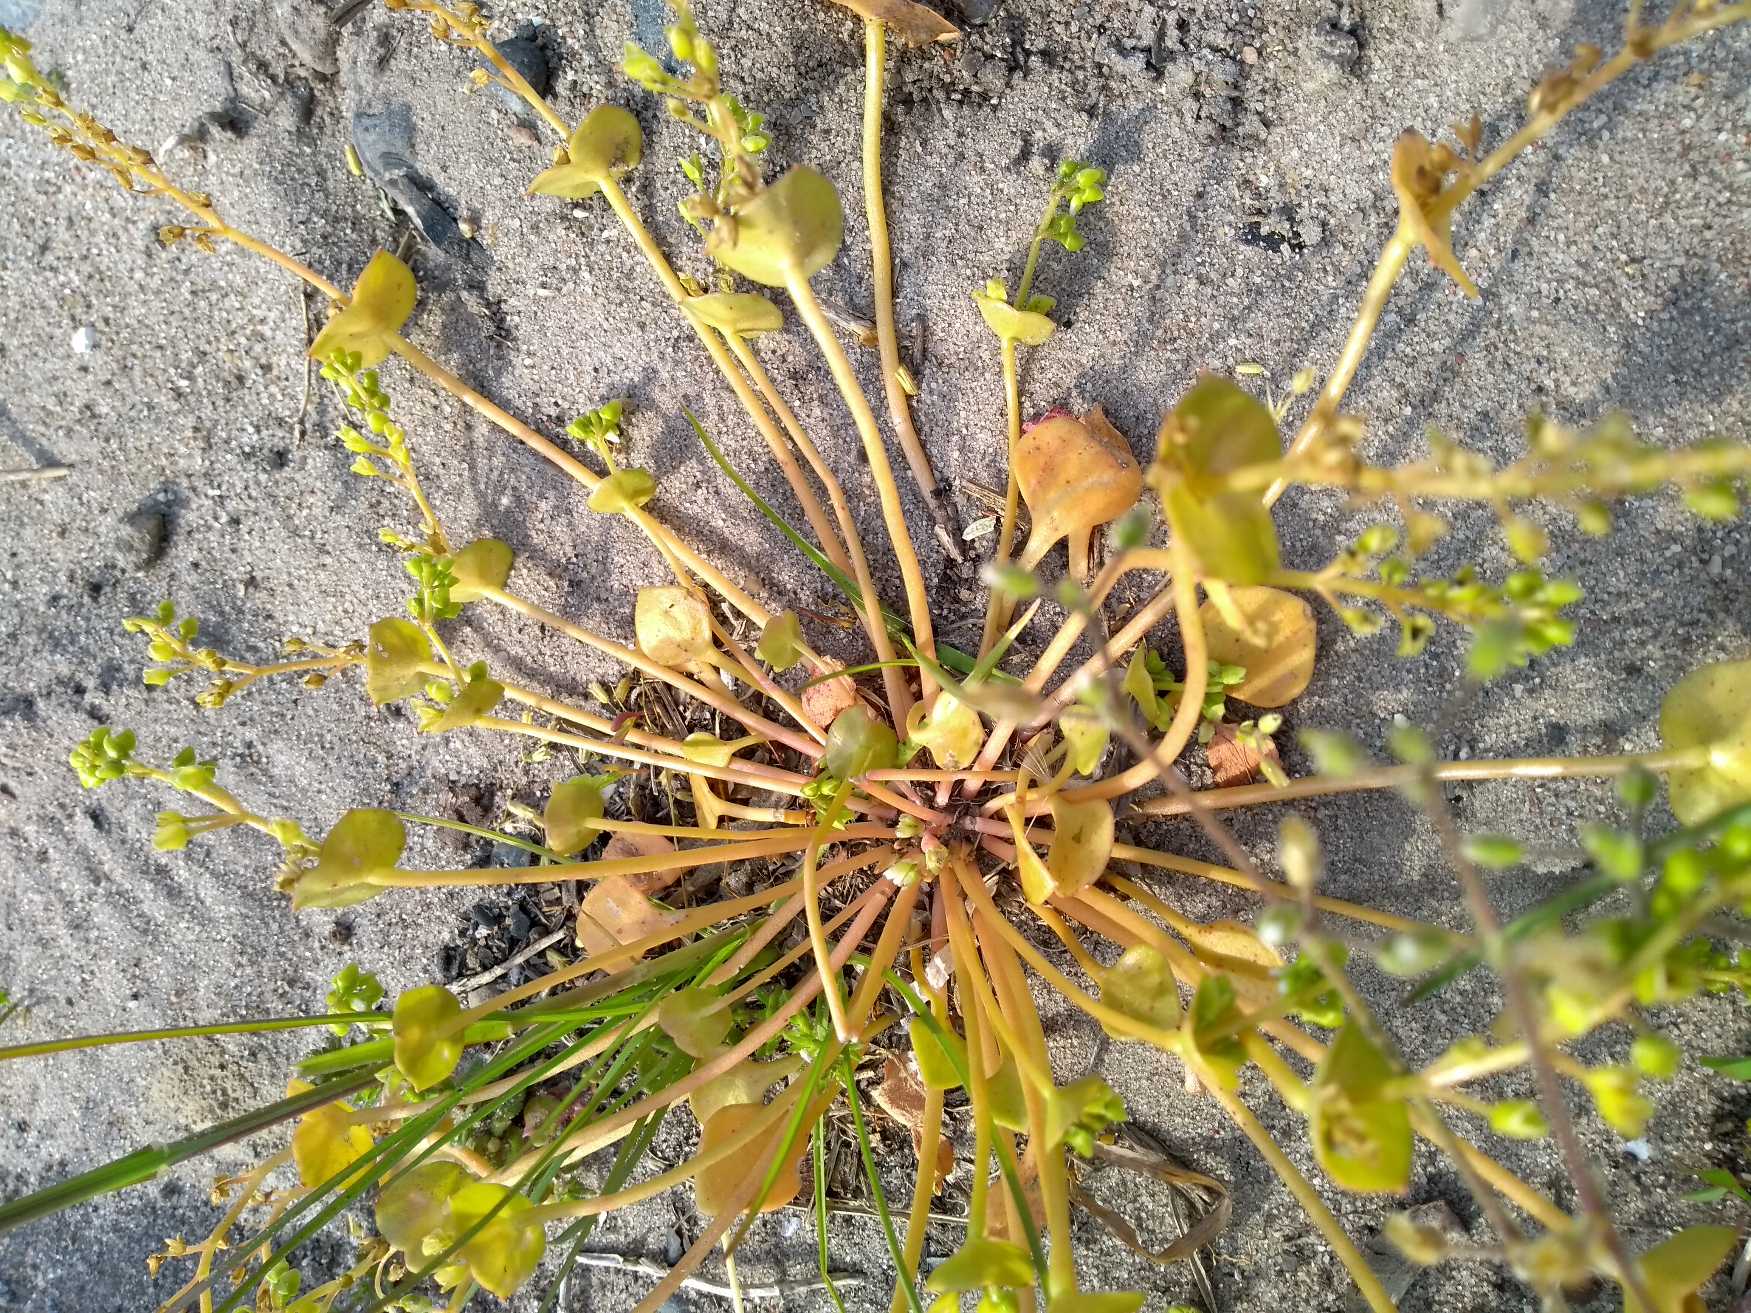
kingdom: Plantae
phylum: Tracheophyta
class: Magnoliopsida
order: Caryophyllales
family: Montiaceae
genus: Claytonia
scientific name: Claytonia perfoliata
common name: Spiselig vinterportulak
